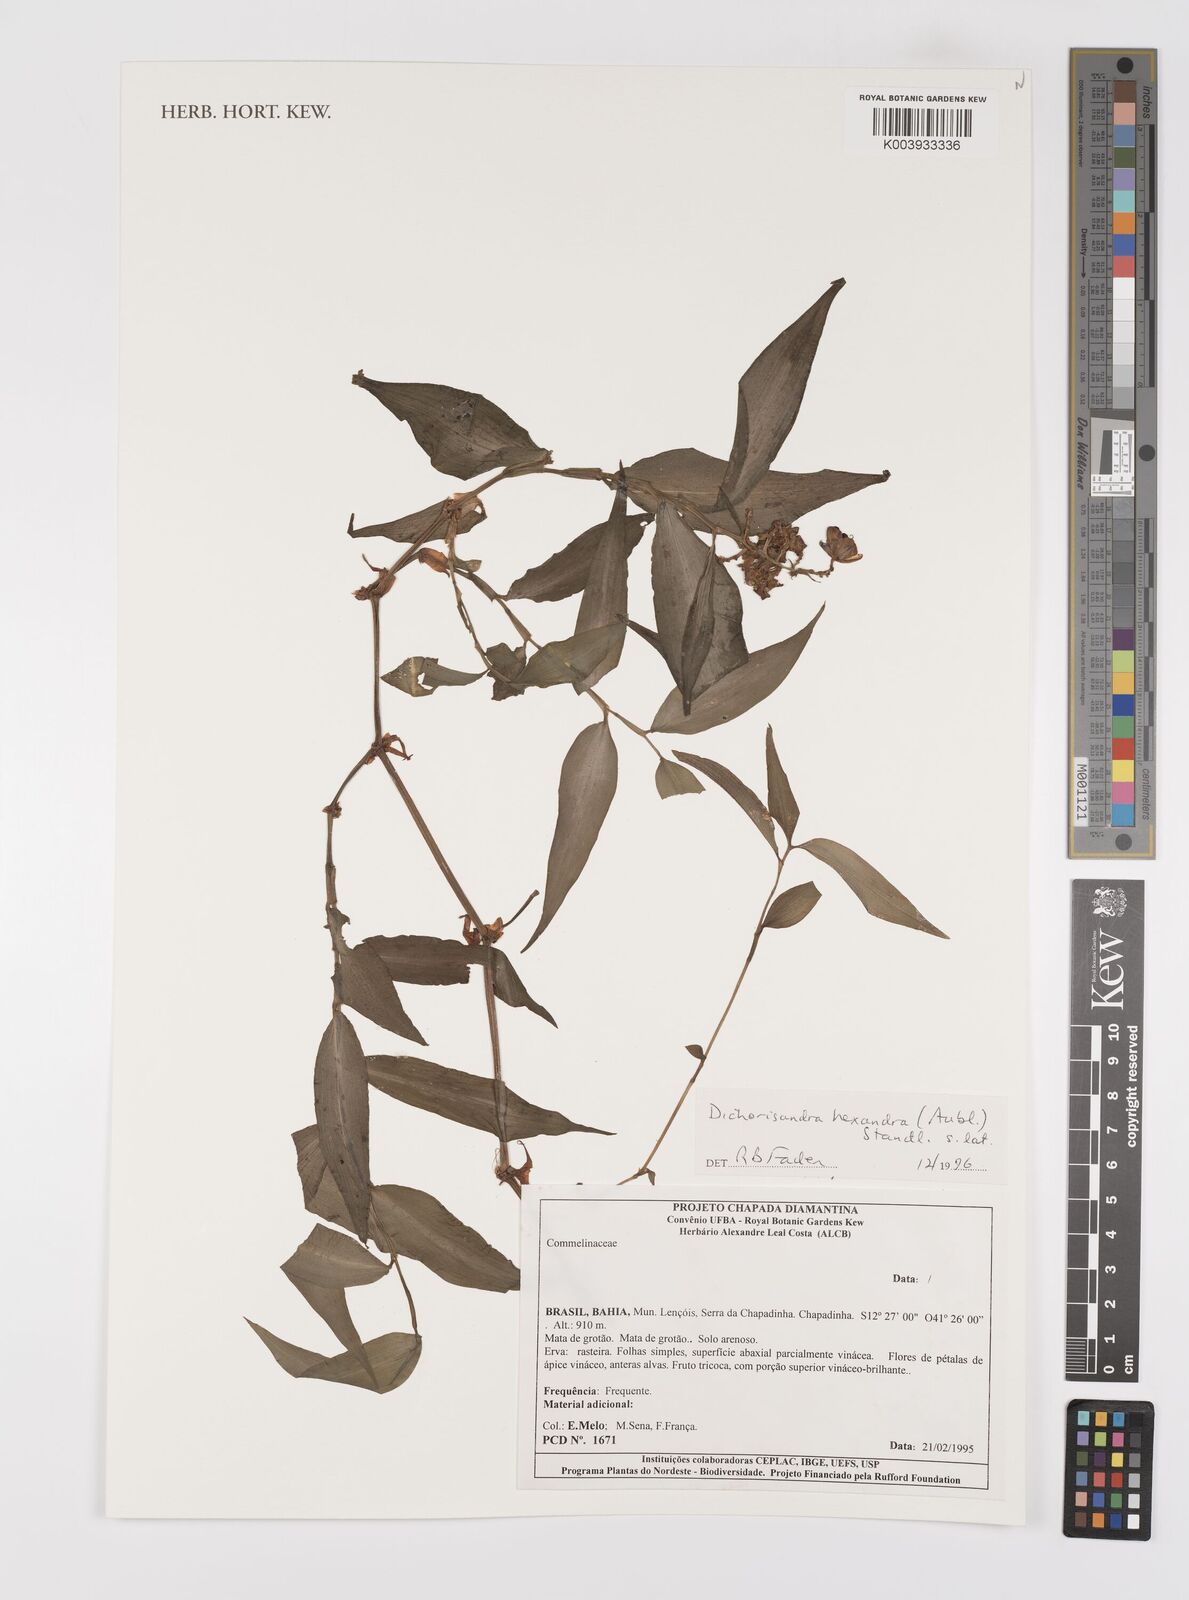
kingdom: Plantae
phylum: Tracheophyta
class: Liliopsida
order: Commelinales
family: Commelinaceae
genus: Dichorisandra
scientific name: Dichorisandra
